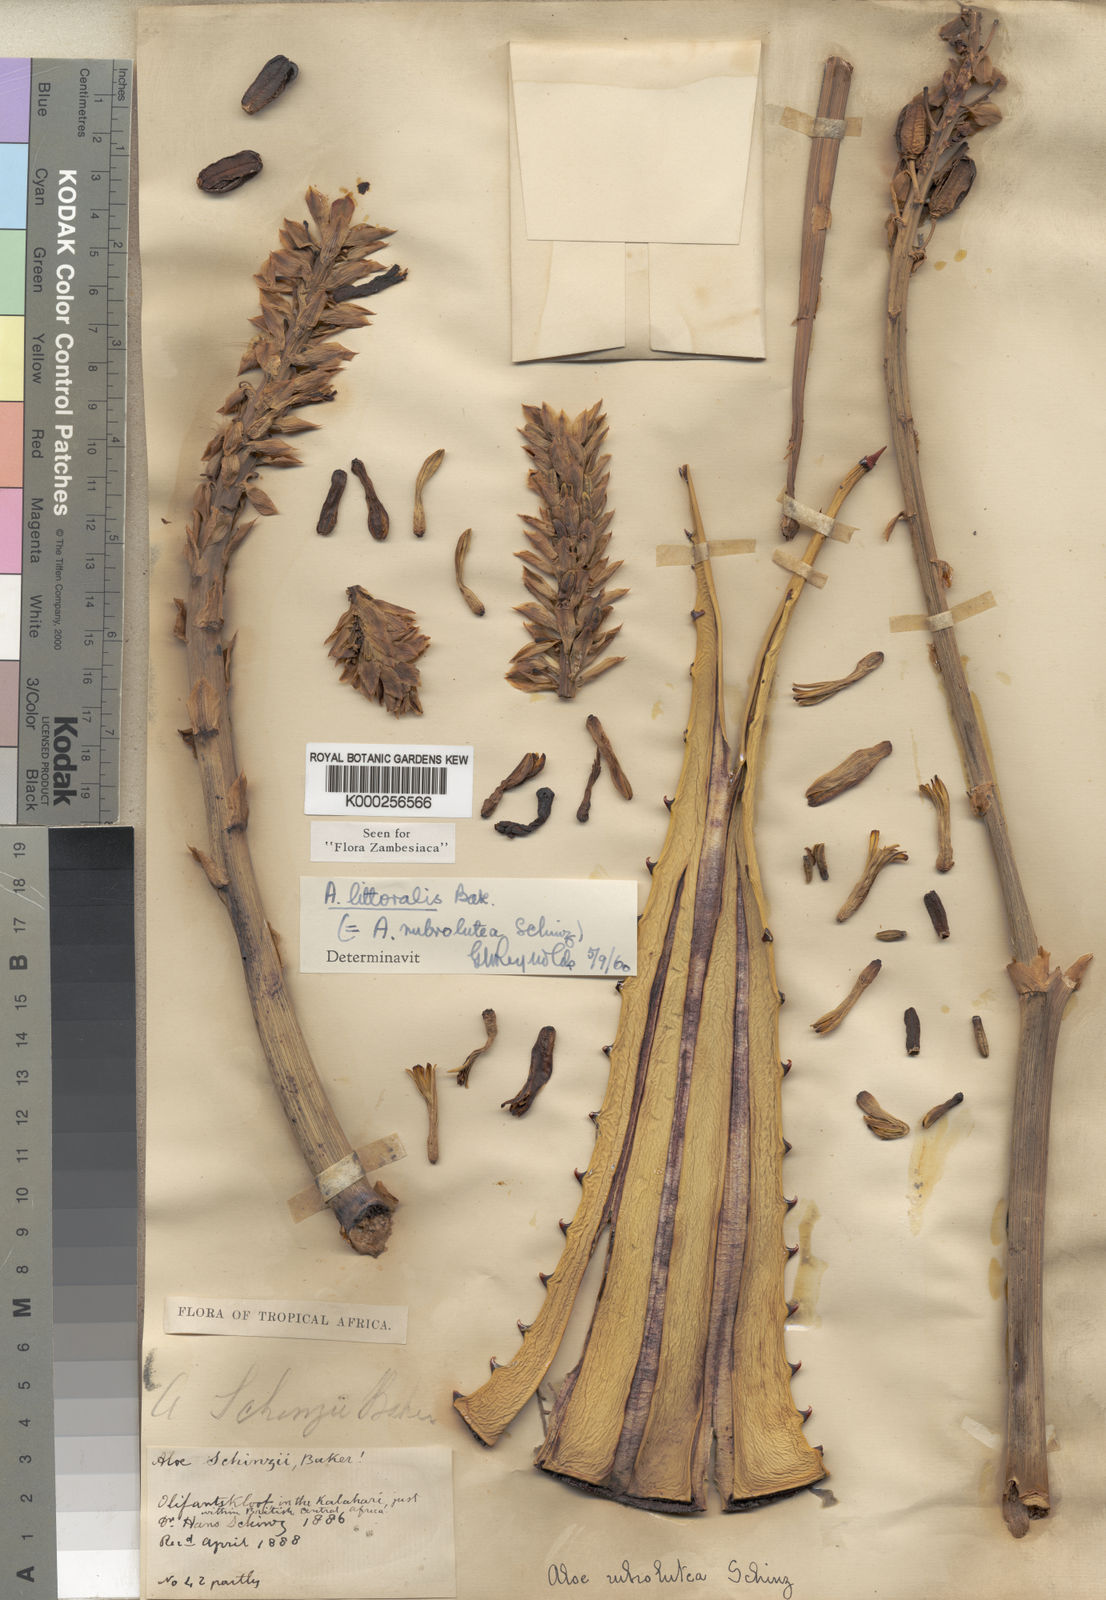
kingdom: Plantae
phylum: Tracheophyta
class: Liliopsida
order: Asparagales
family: Asphodelaceae
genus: Aloe
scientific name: Aloe littoralis
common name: Luanda tree aloe
